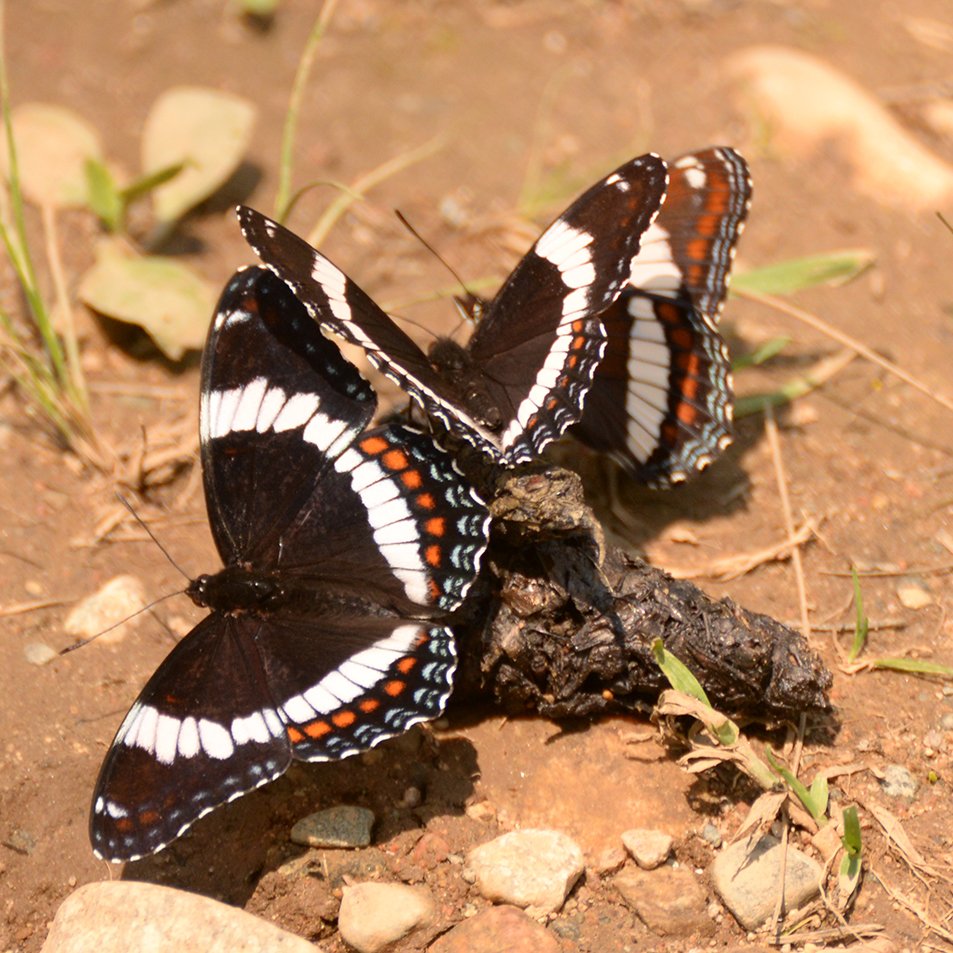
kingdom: Animalia
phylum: Arthropoda
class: Insecta
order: Lepidoptera
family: Nymphalidae
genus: Limenitis
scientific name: Limenitis arthemis
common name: Red-spotted Admiral
